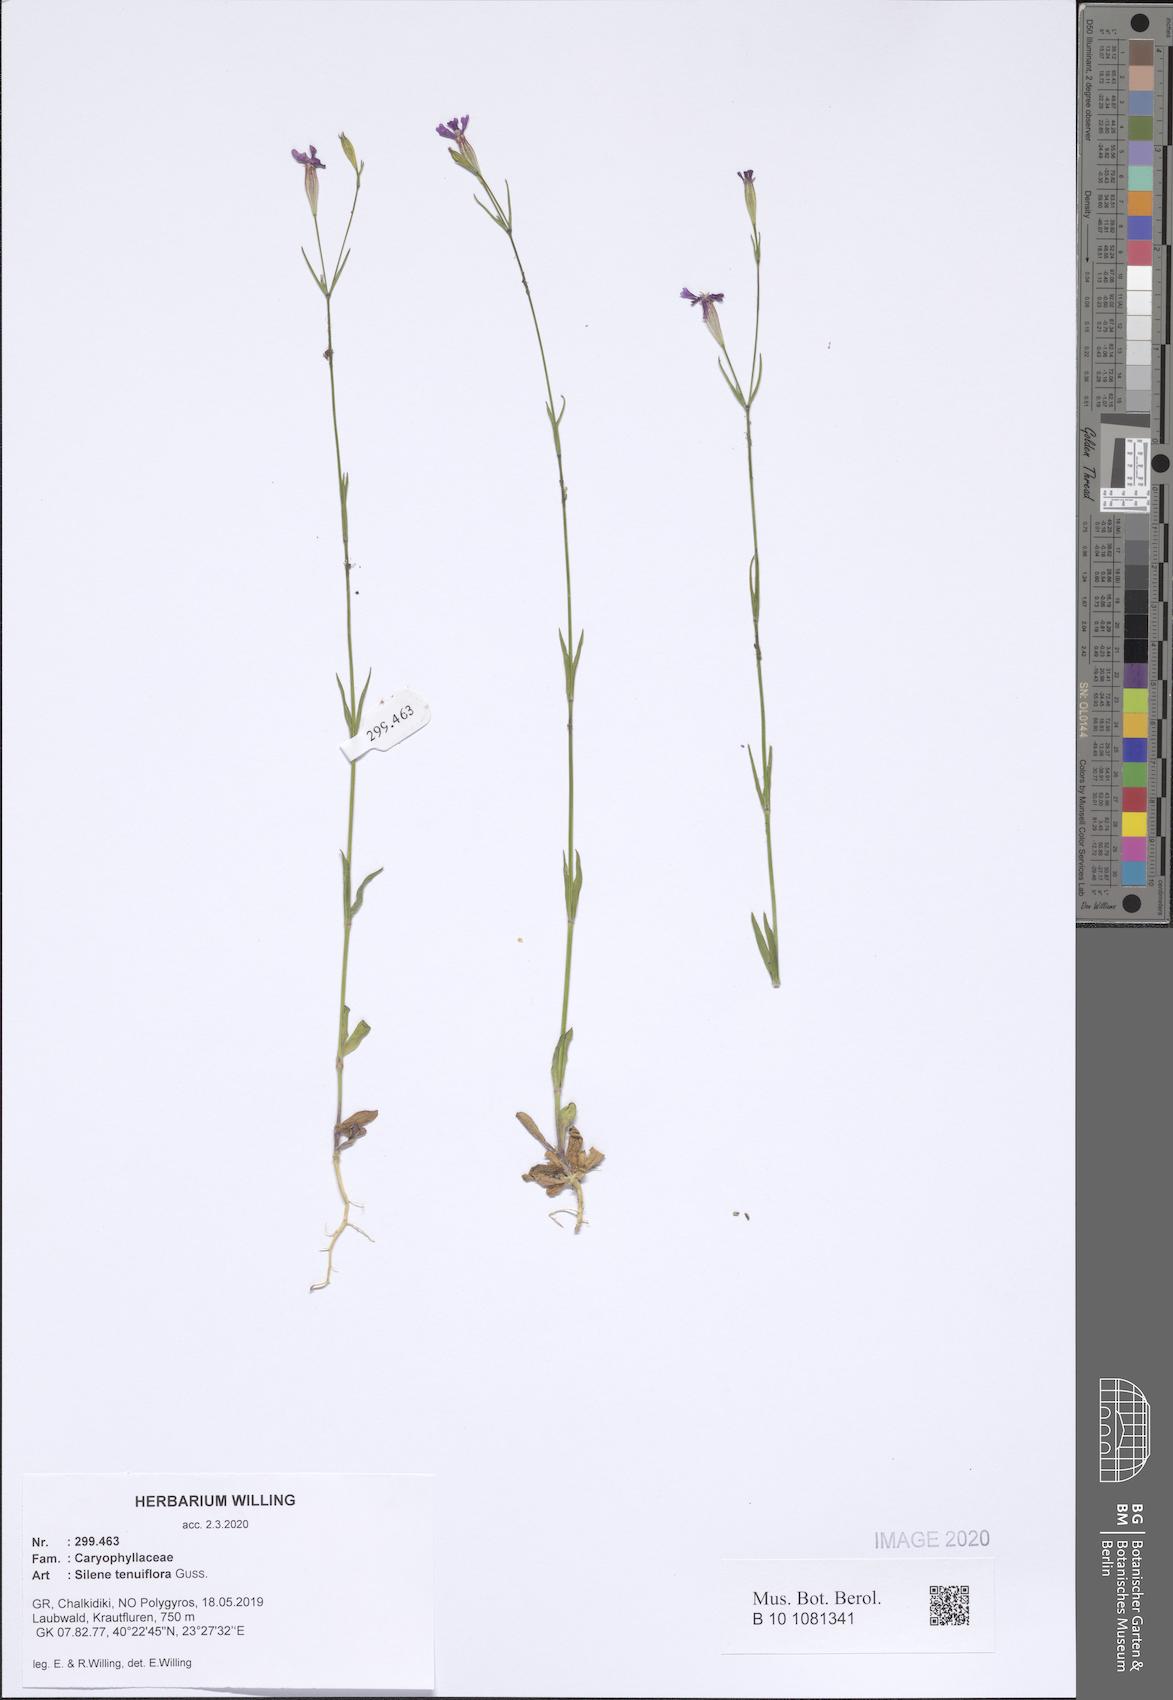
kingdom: Plantae
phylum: Tracheophyta
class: Magnoliopsida
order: Caryophyllales
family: Caryophyllaceae
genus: Silene
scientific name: Silene tenuiflora
